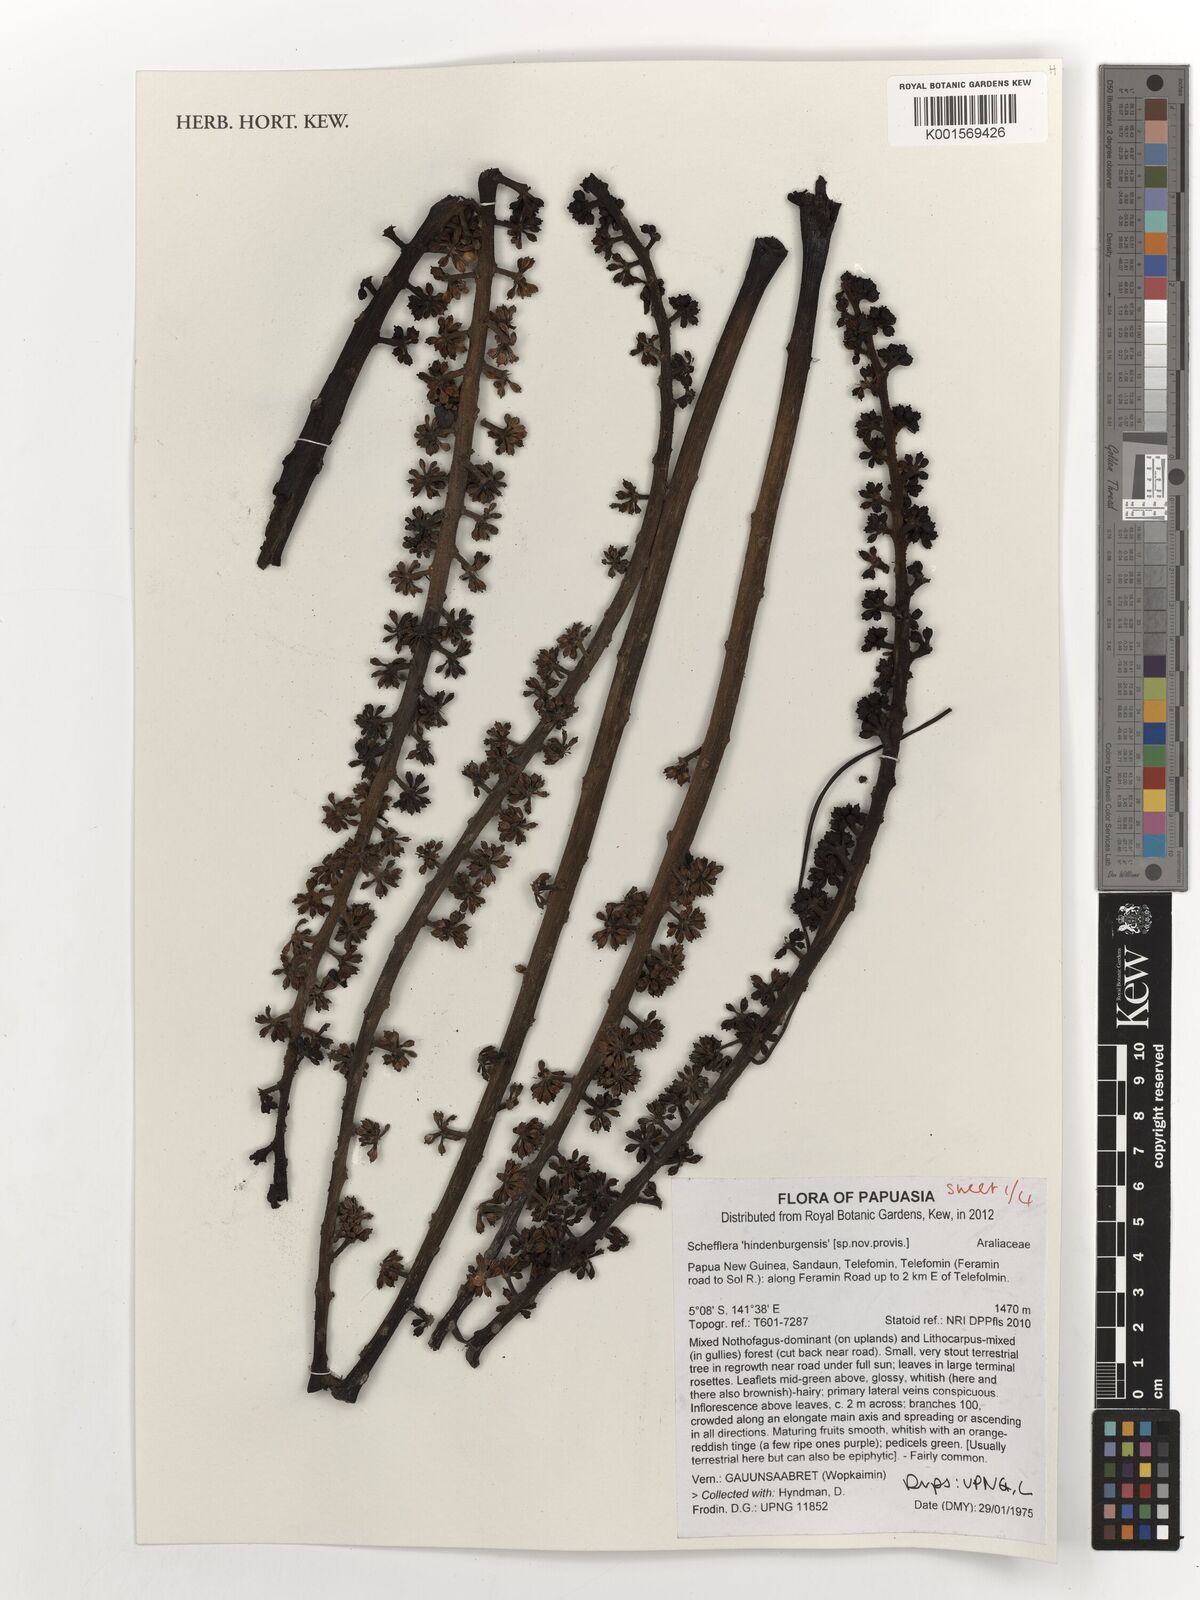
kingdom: Plantae
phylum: Tracheophyta
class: Magnoliopsida
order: Apiales
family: Araliaceae
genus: Schefflera
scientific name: Schefflera
